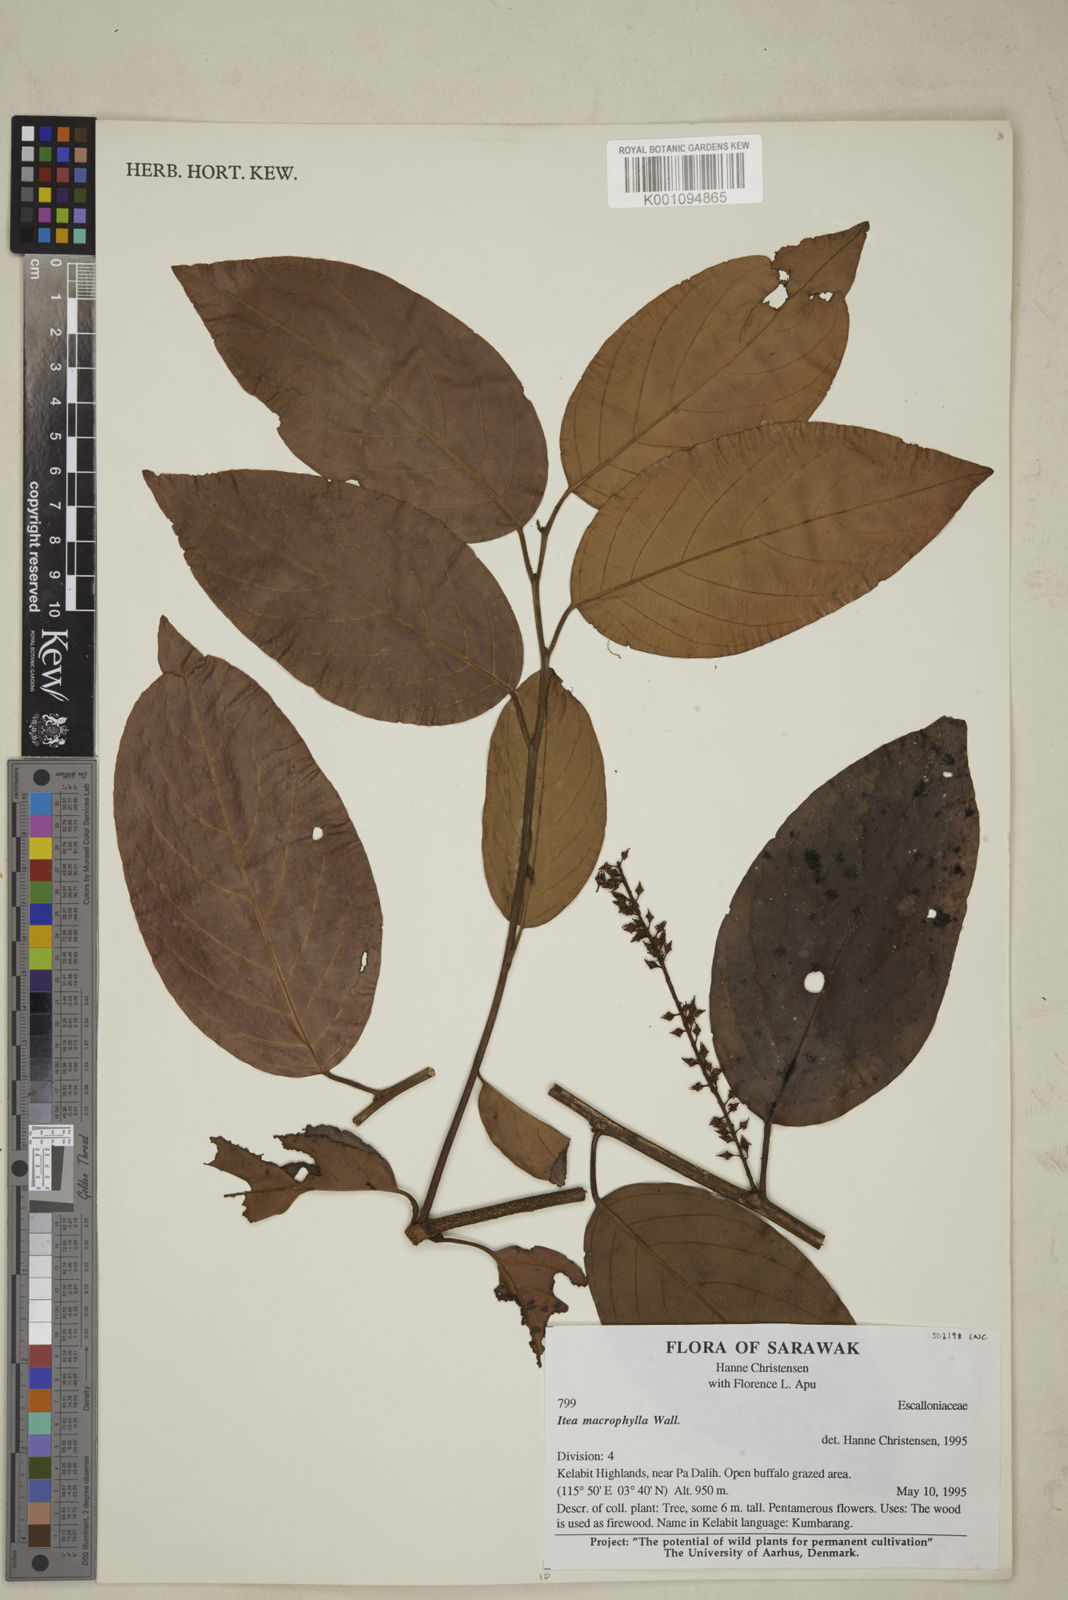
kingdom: Plantae
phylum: Tracheophyta
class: Magnoliopsida
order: Saxifragales
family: Iteaceae
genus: Itea
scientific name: Itea macrophylla
